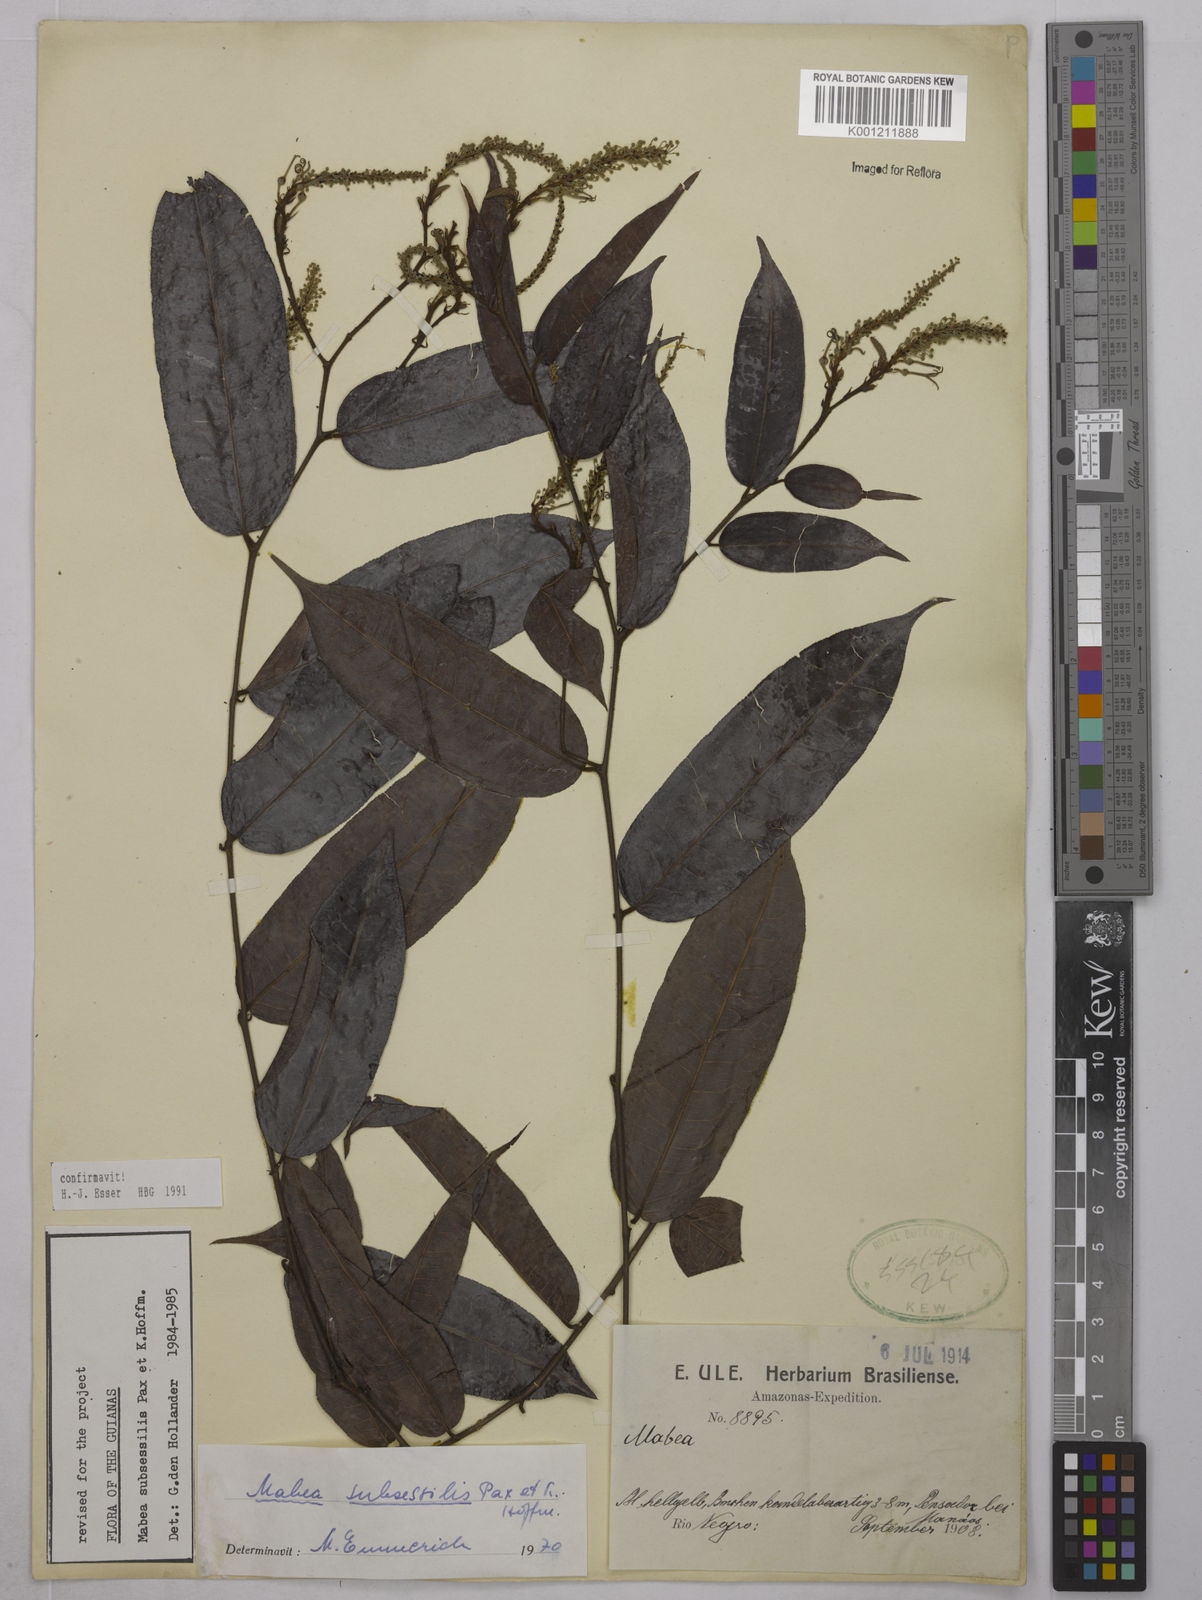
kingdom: Plantae
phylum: Tracheophyta
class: Magnoliopsida
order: Malpighiales
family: Euphorbiaceae
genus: Mabea
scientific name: Mabea subsessilis
